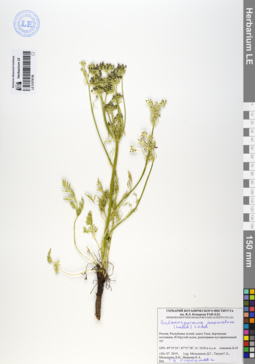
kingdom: Plantae
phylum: Tracheophyta
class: Magnoliopsida
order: Apiales
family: Apiaceae
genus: Aulacospermum
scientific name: Aulacospermum anomalum
